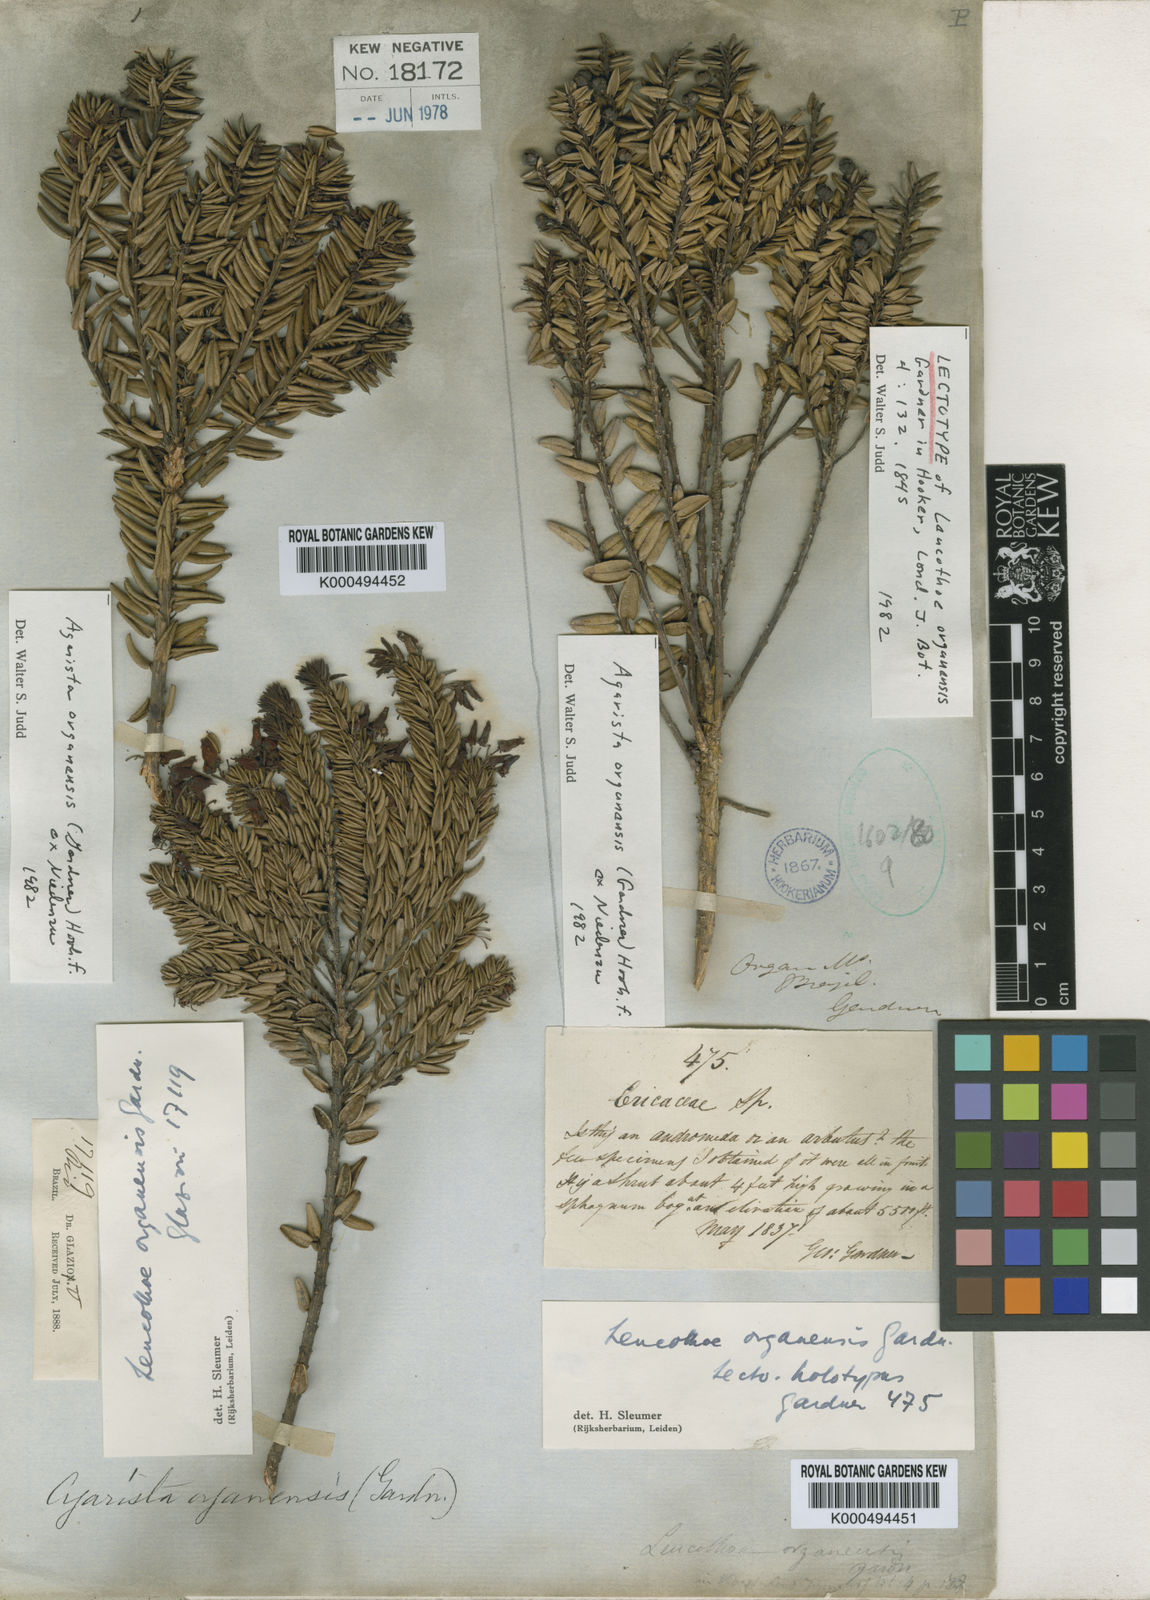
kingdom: Plantae
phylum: Tracheophyta
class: Magnoliopsida
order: Ericales
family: Ericaceae
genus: Agarista
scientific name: Agarista
